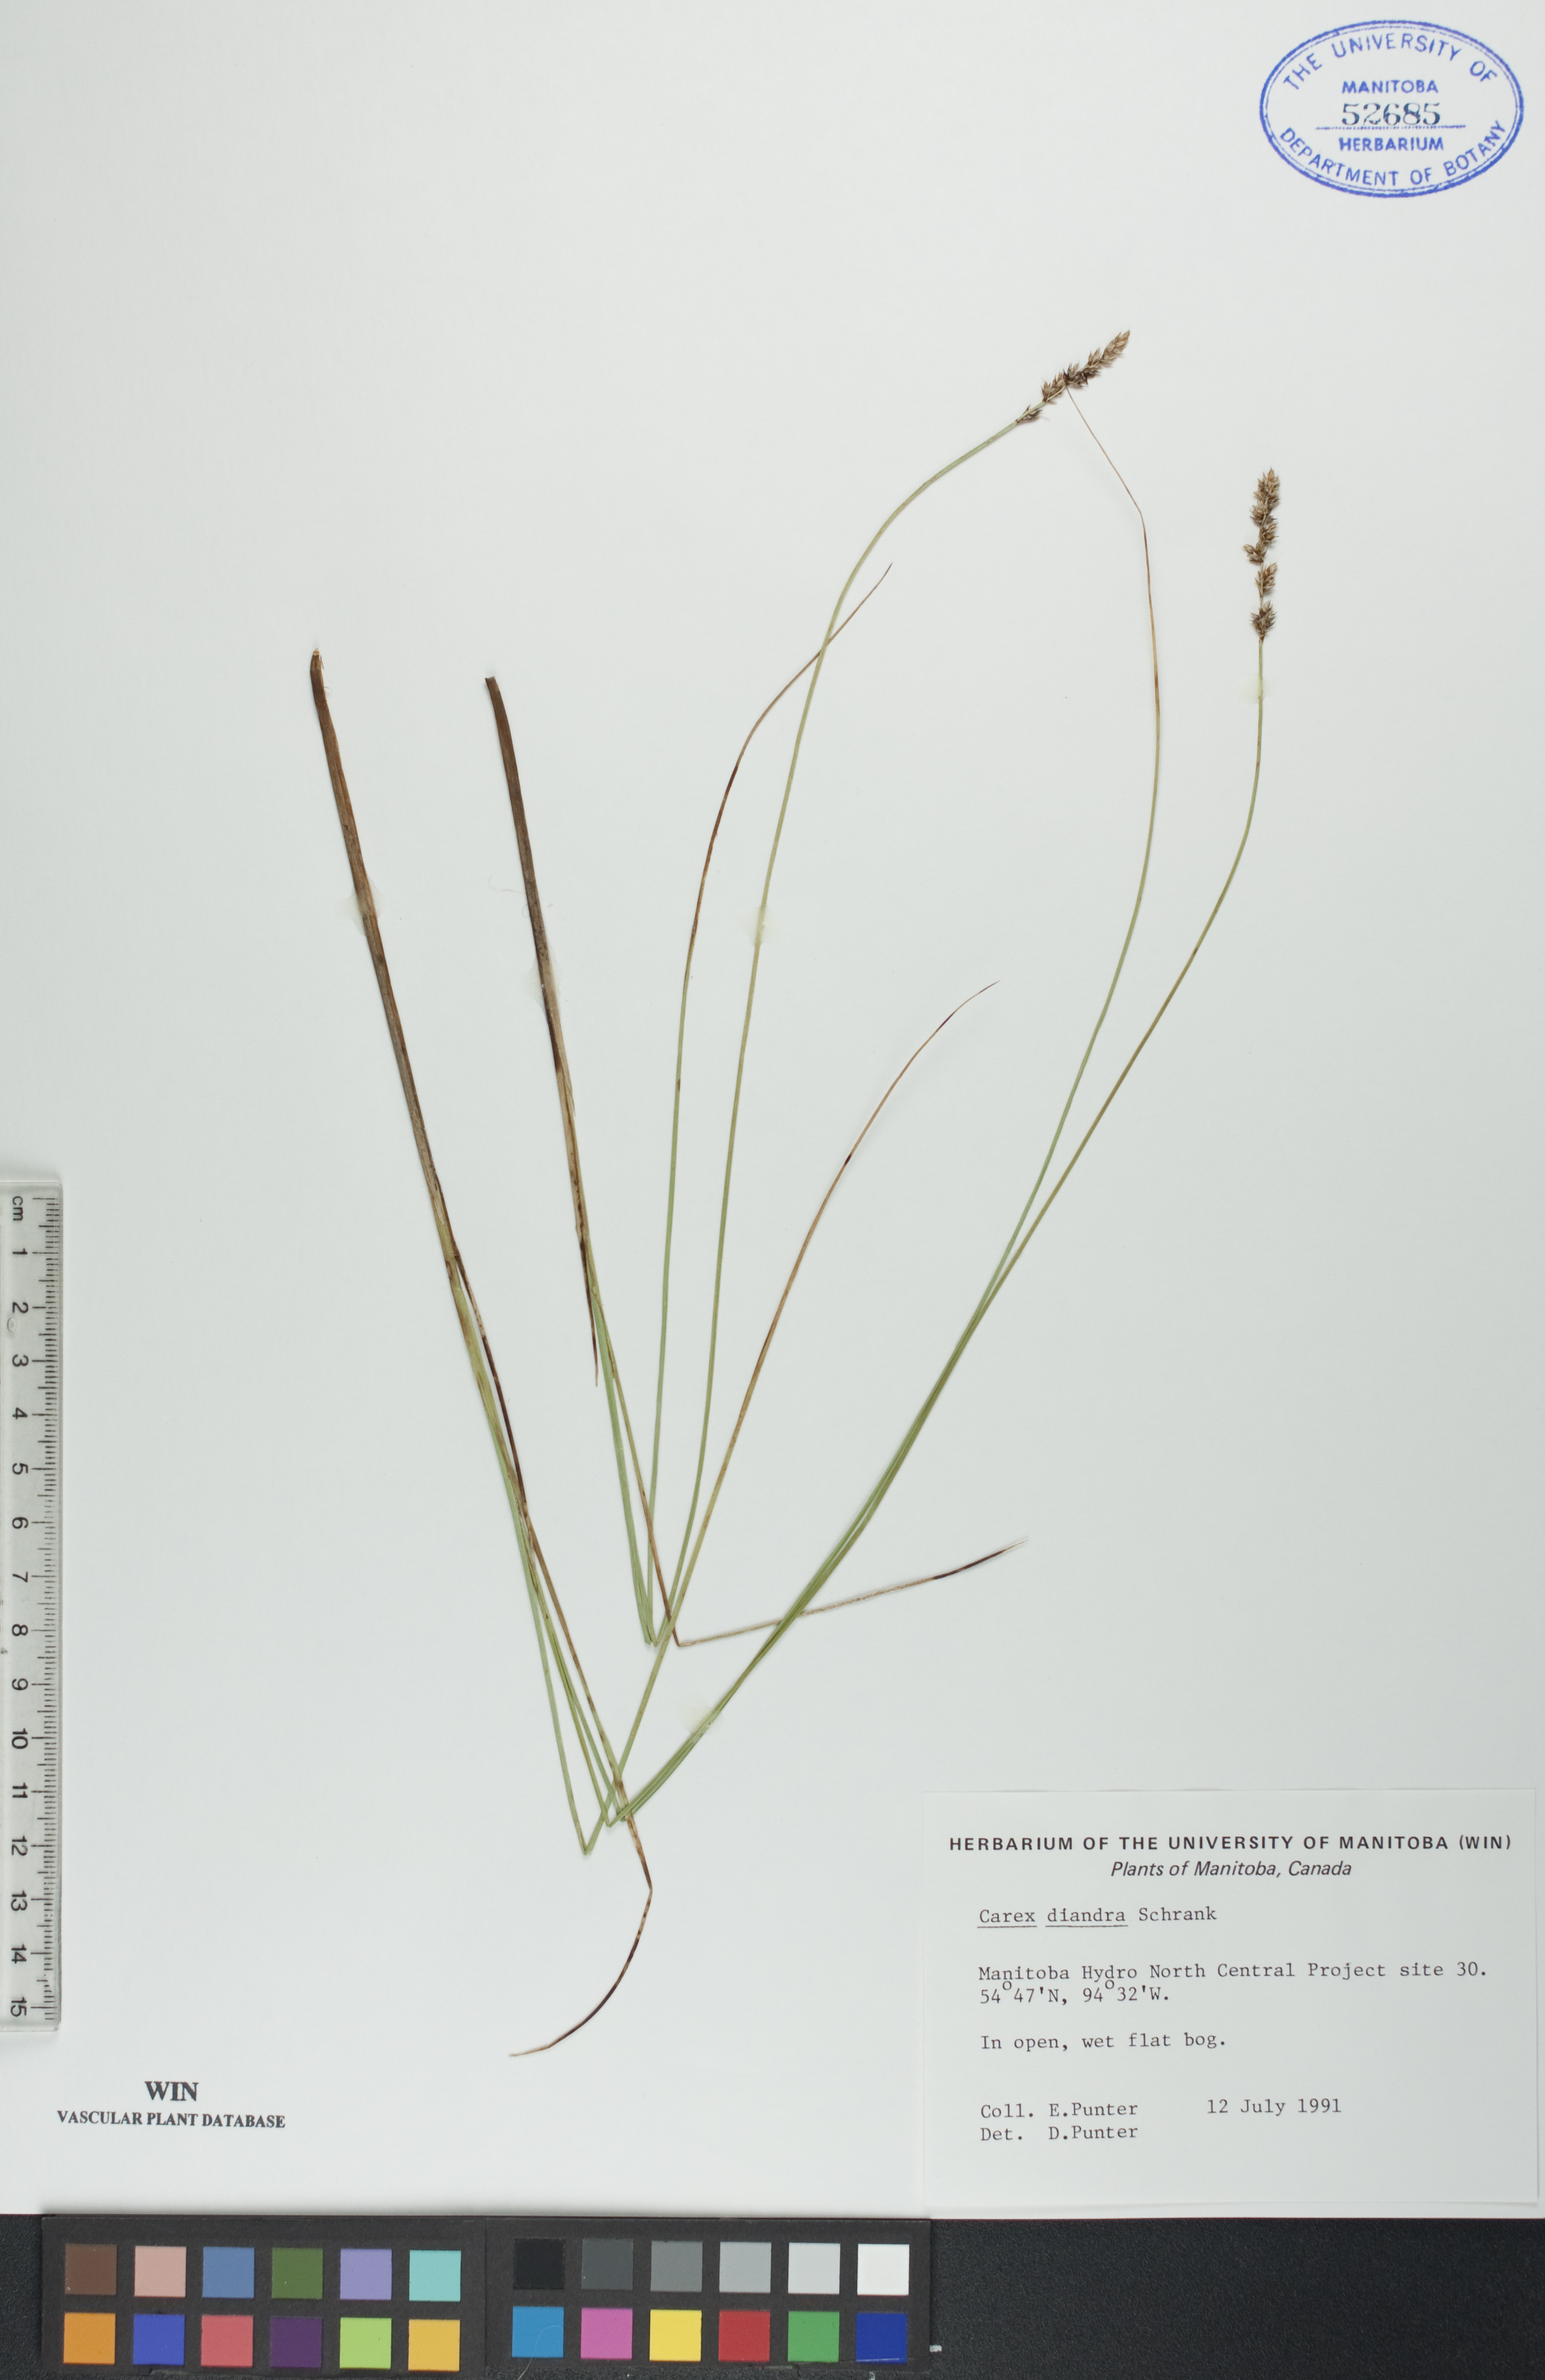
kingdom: Plantae
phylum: Tracheophyta
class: Liliopsida
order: Poales
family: Cyperaceae
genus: Carex
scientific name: Carex diandra
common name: Lesser tussock-sedge
